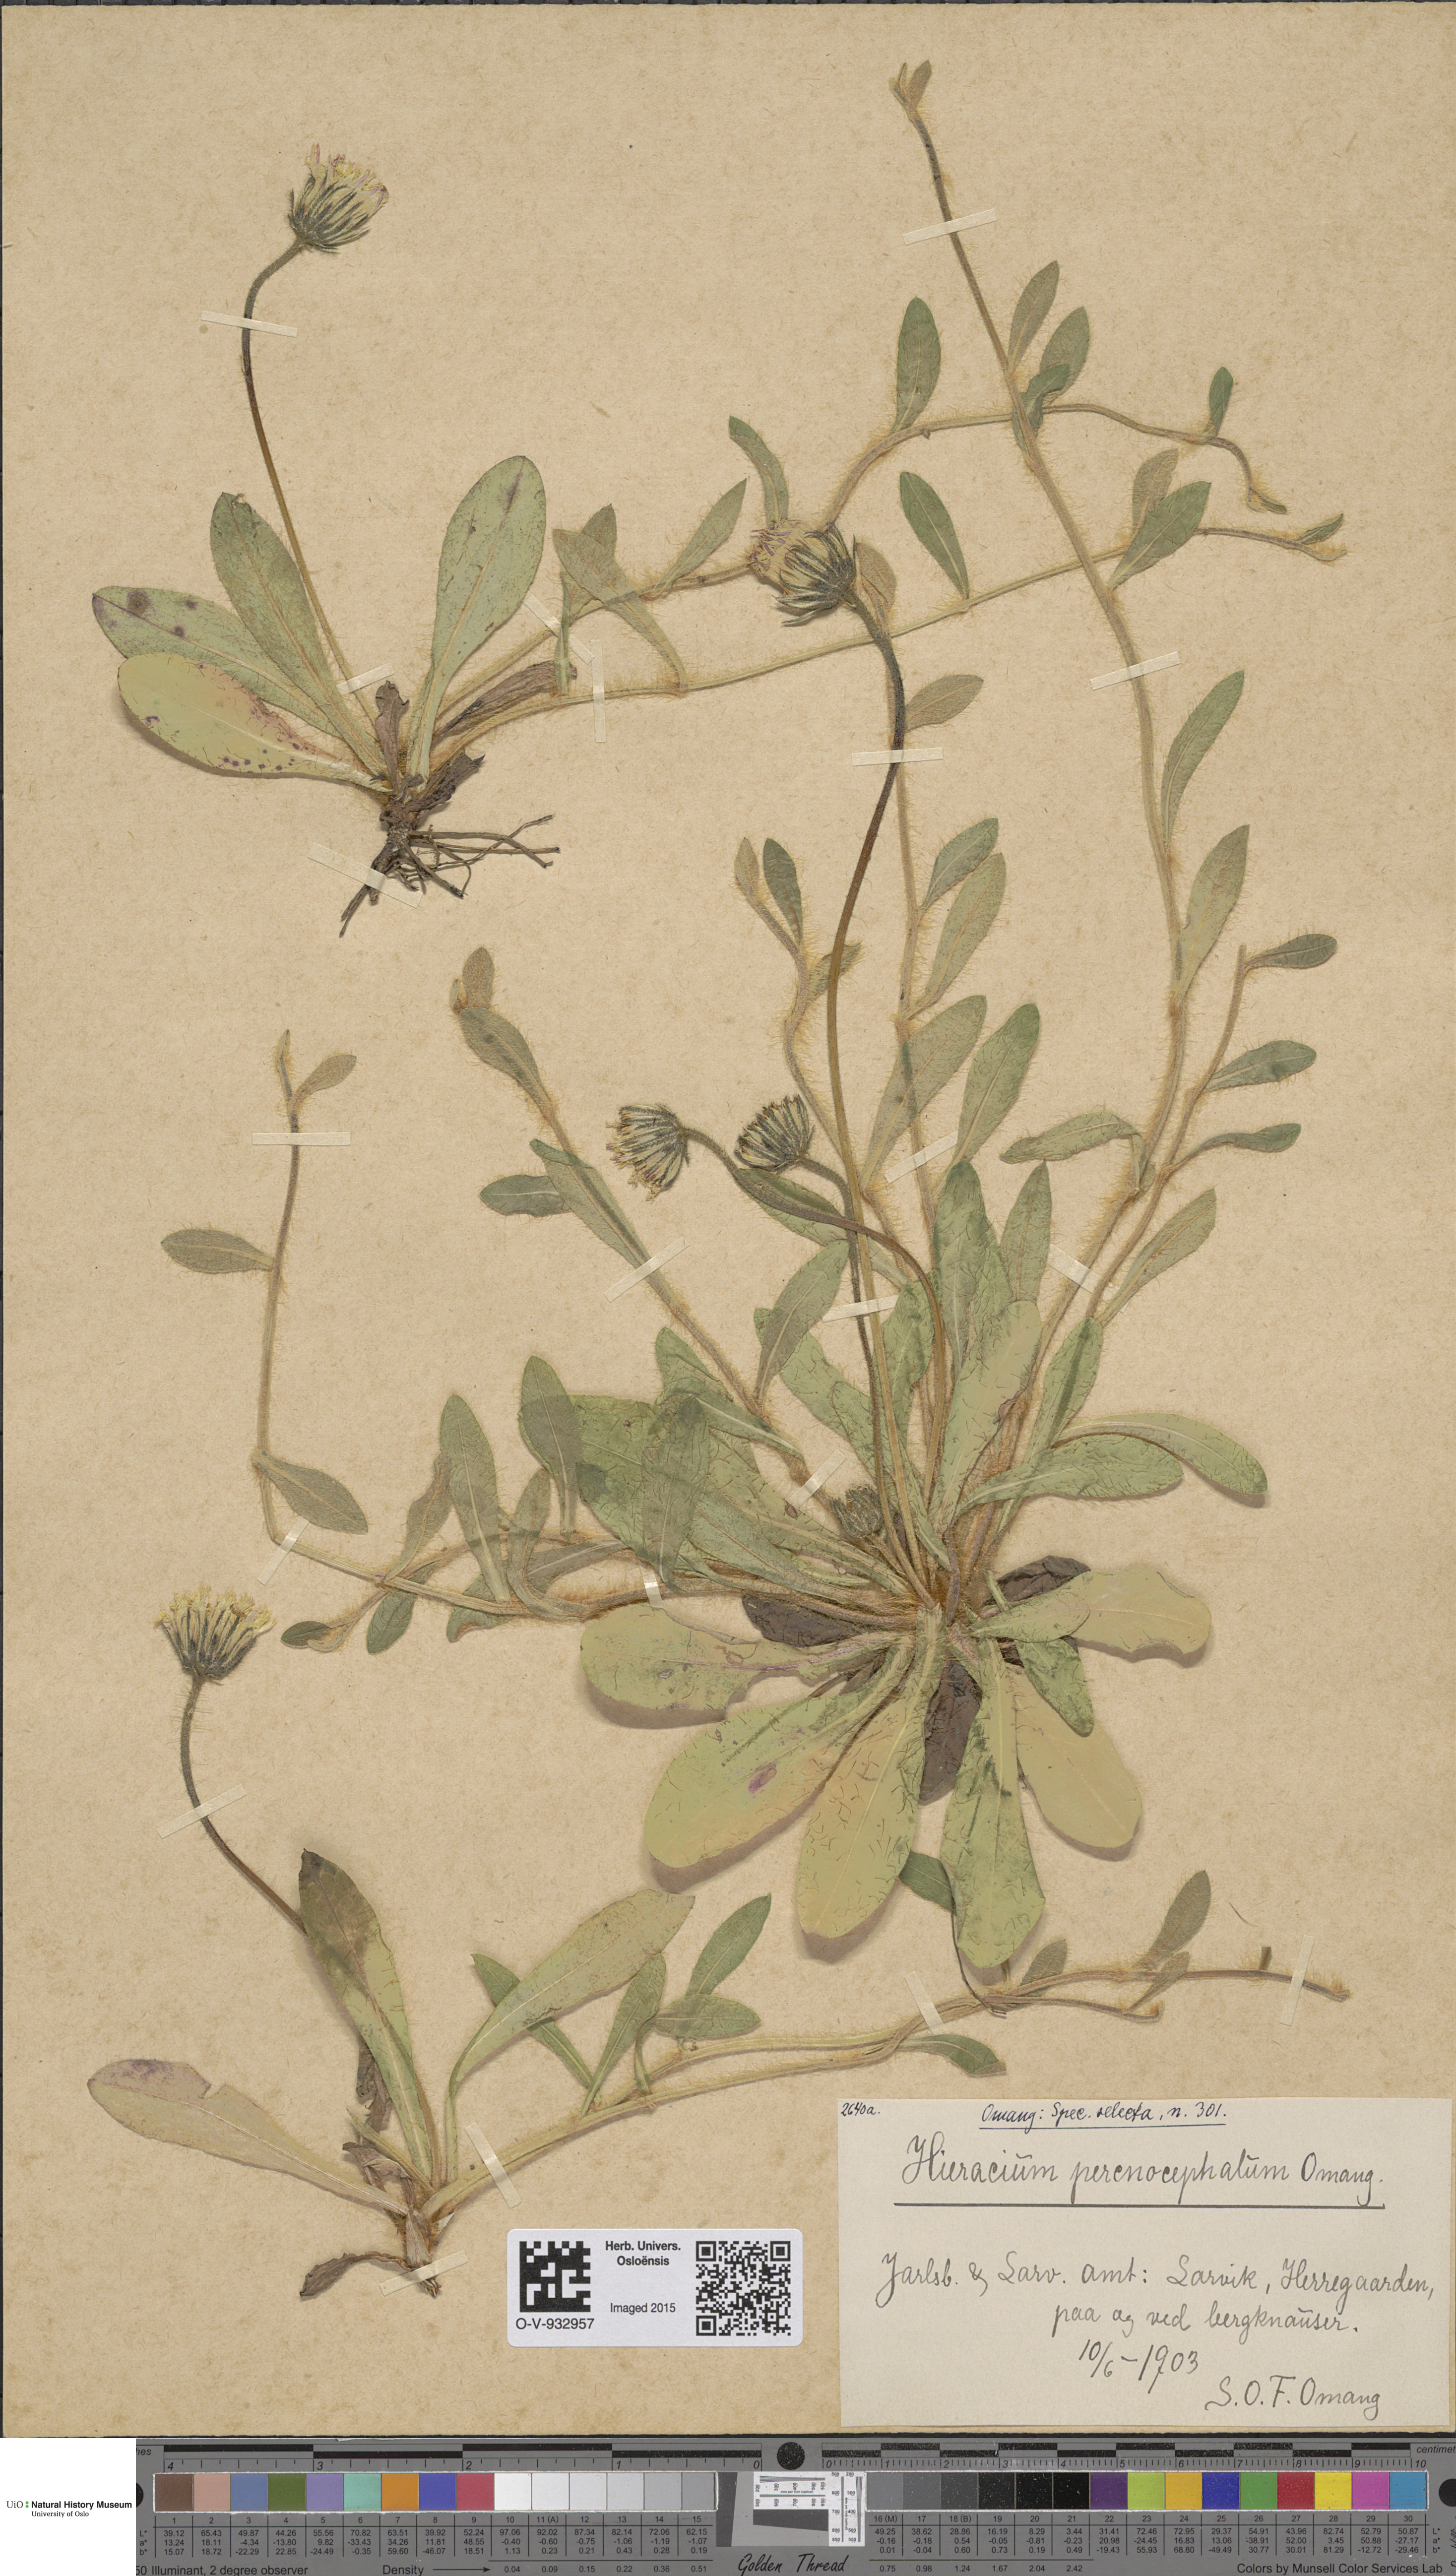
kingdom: Plantae
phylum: Tracheophyta
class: Magnoliopsida
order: Asterales
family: Asteraceae
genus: Pilosella
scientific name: Pilosella officinarum
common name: Mouse-ear hawkweed
